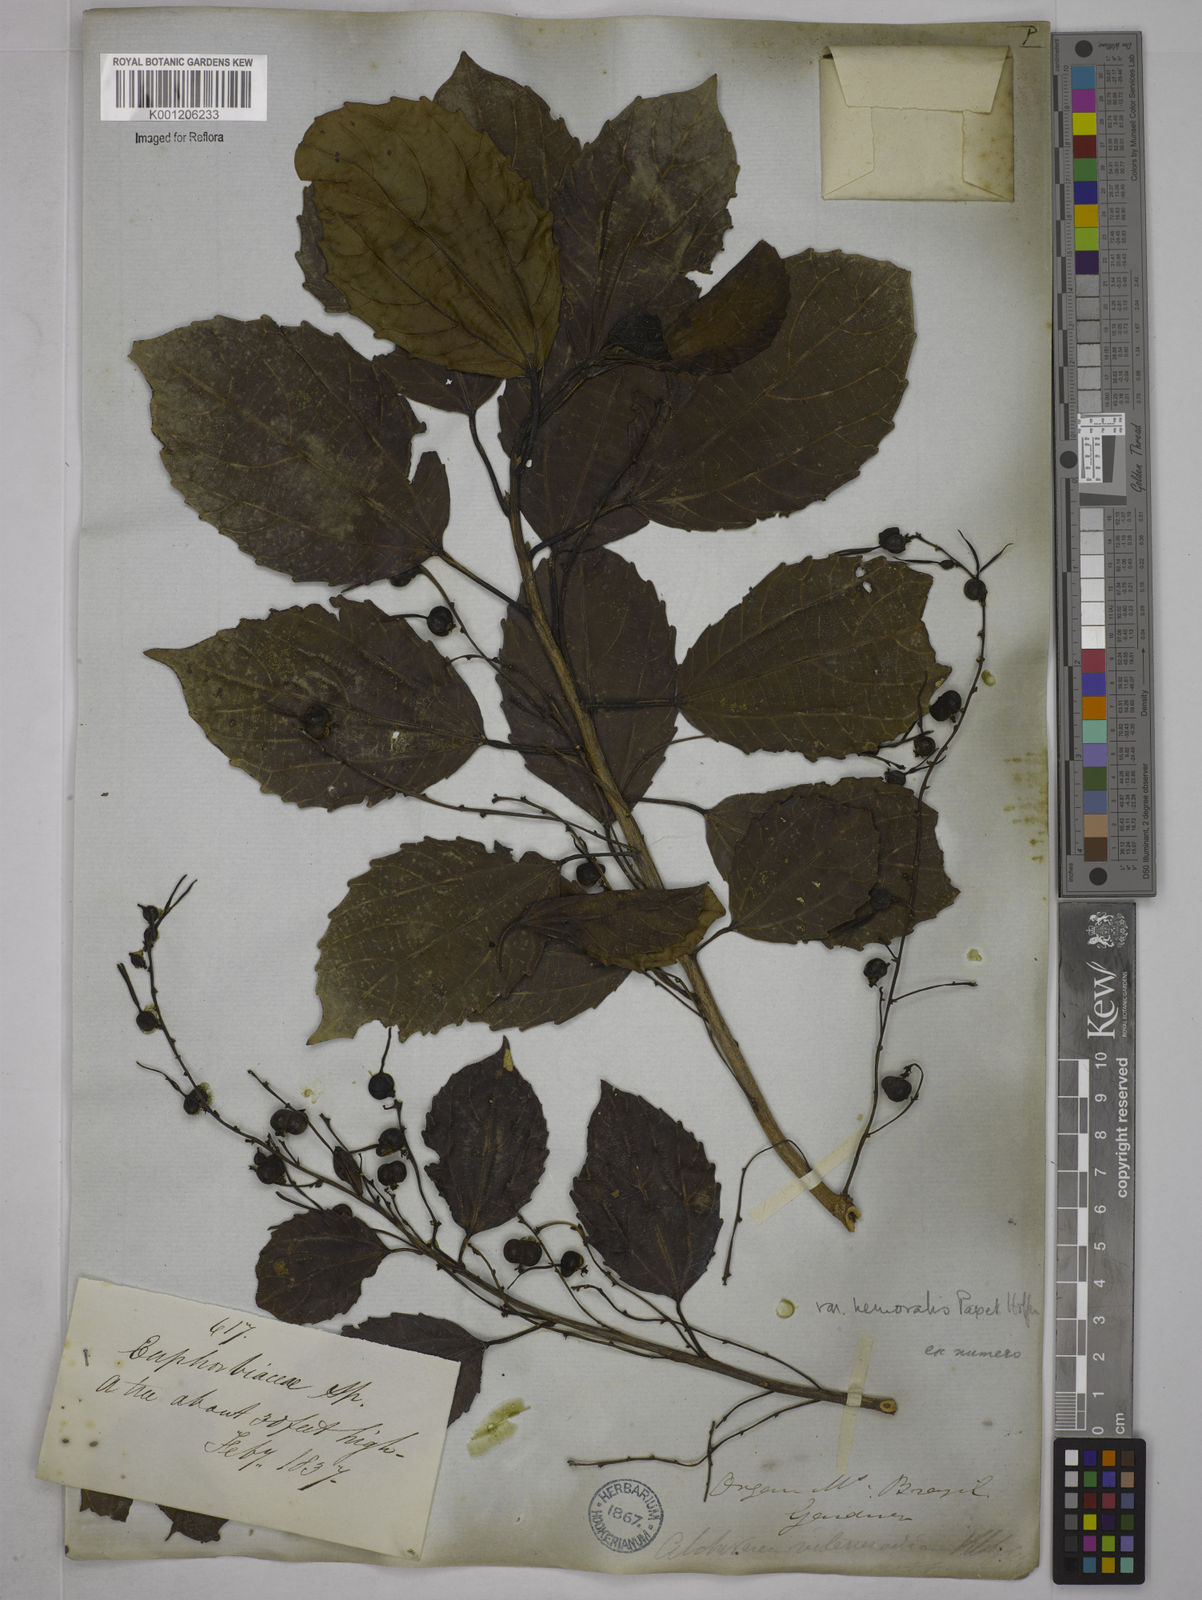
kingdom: Plantae
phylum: Tracheophyta
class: Magnoliopsida
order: Malpighiales
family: Euphorbiaceae
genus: Alchornea
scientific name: Alchornea triplinervia
